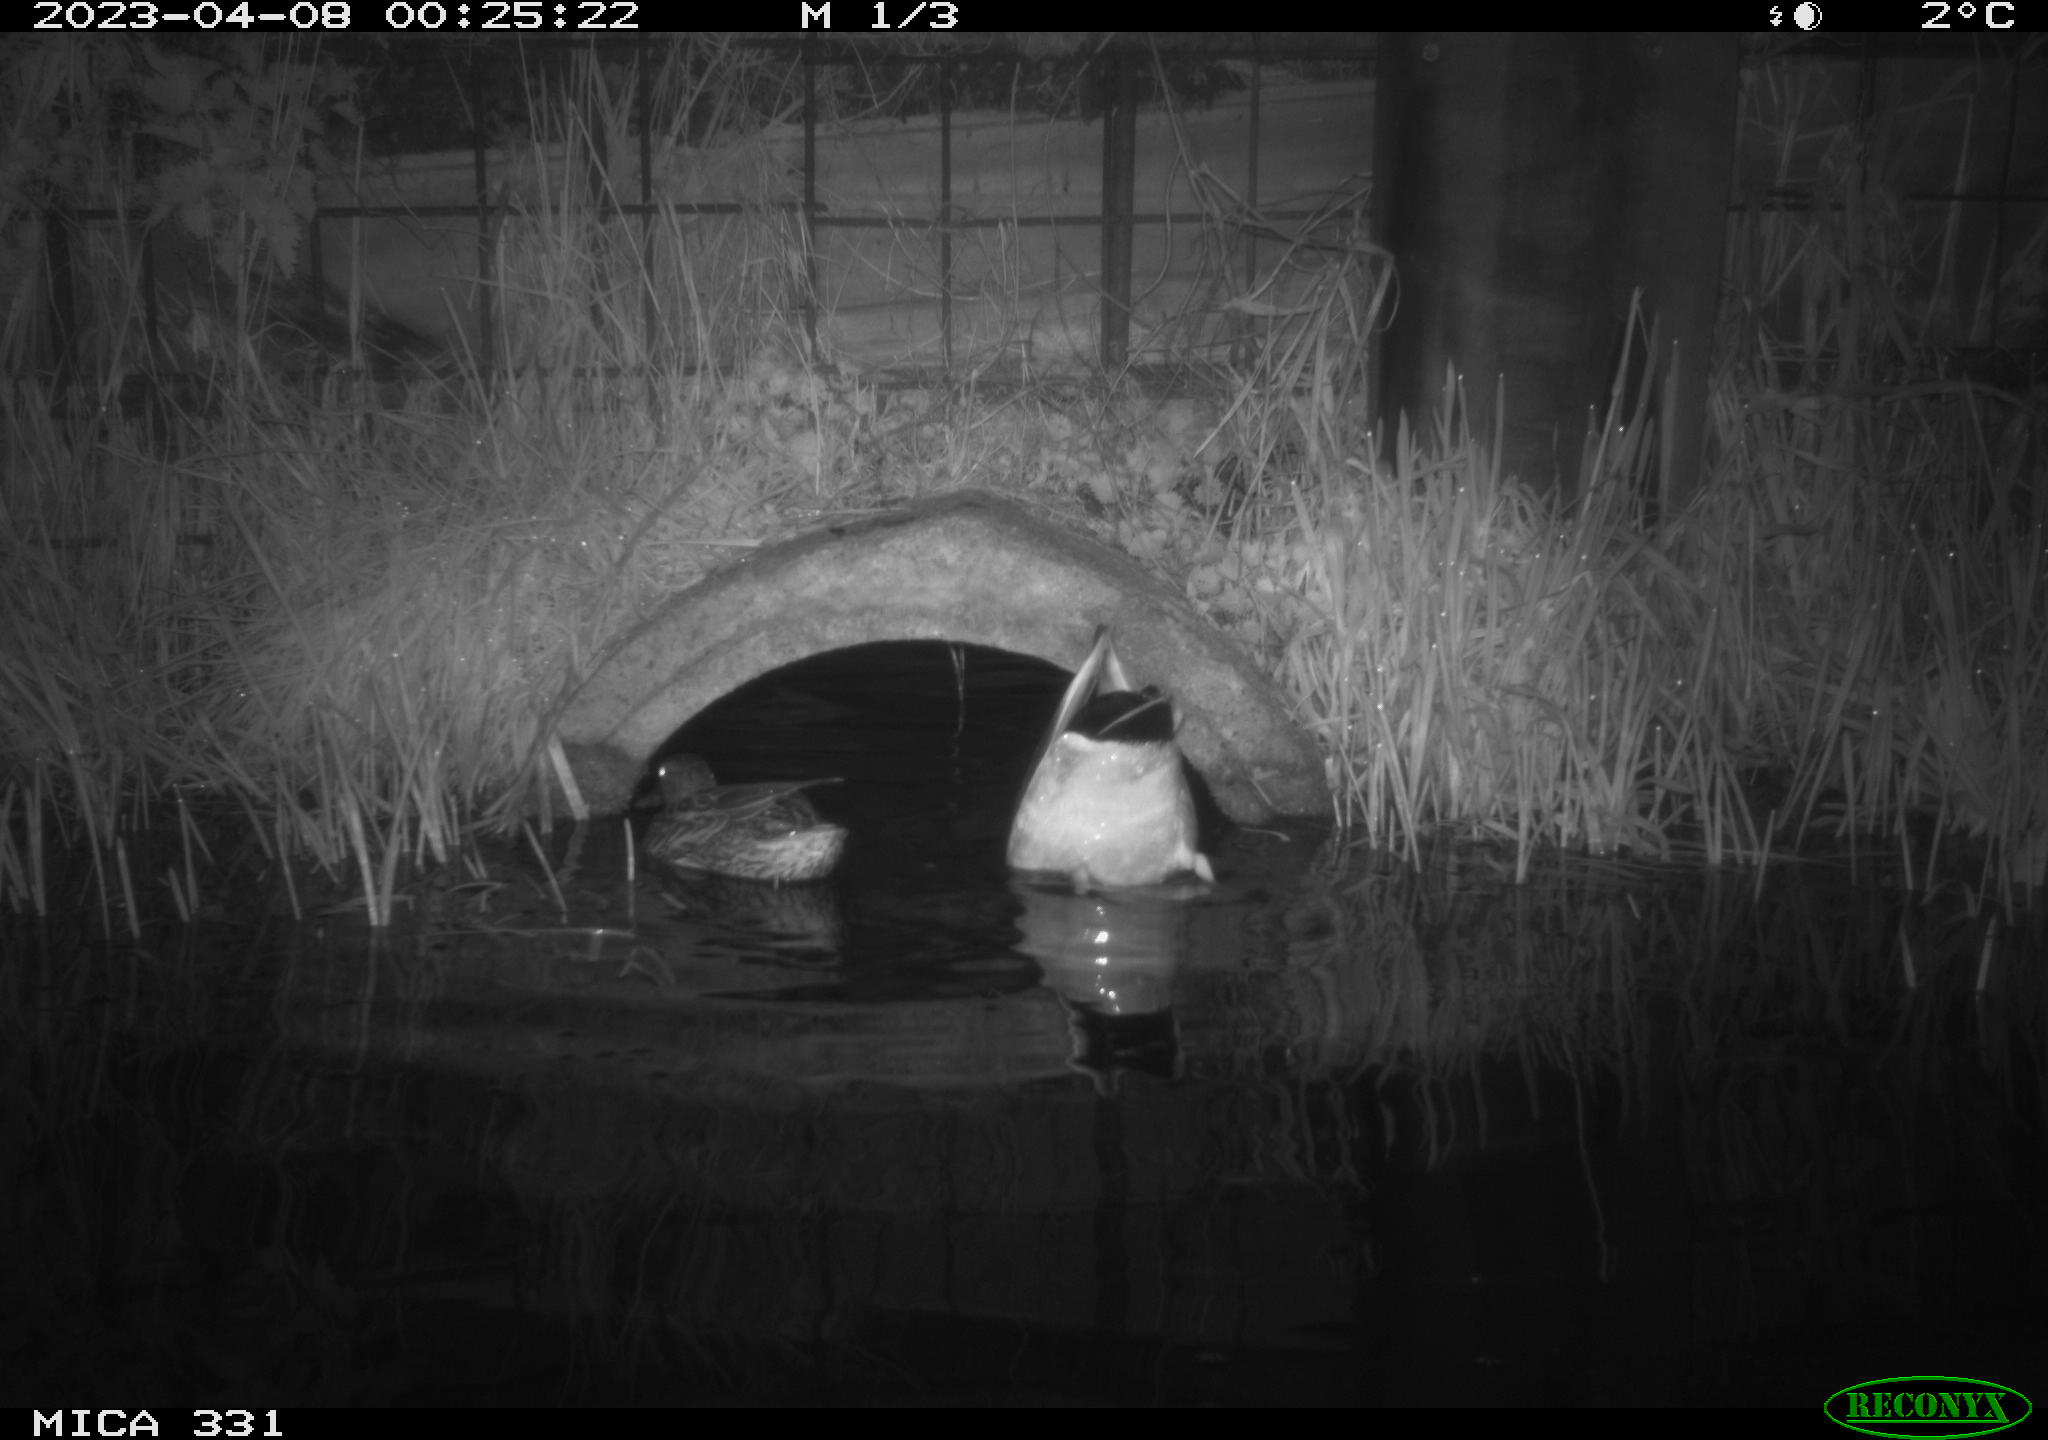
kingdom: Animalia
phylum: Chordata
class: Aves
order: Anseriformes
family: Anatidae
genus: Anas
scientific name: Anas platyrhynchos
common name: Mallard
